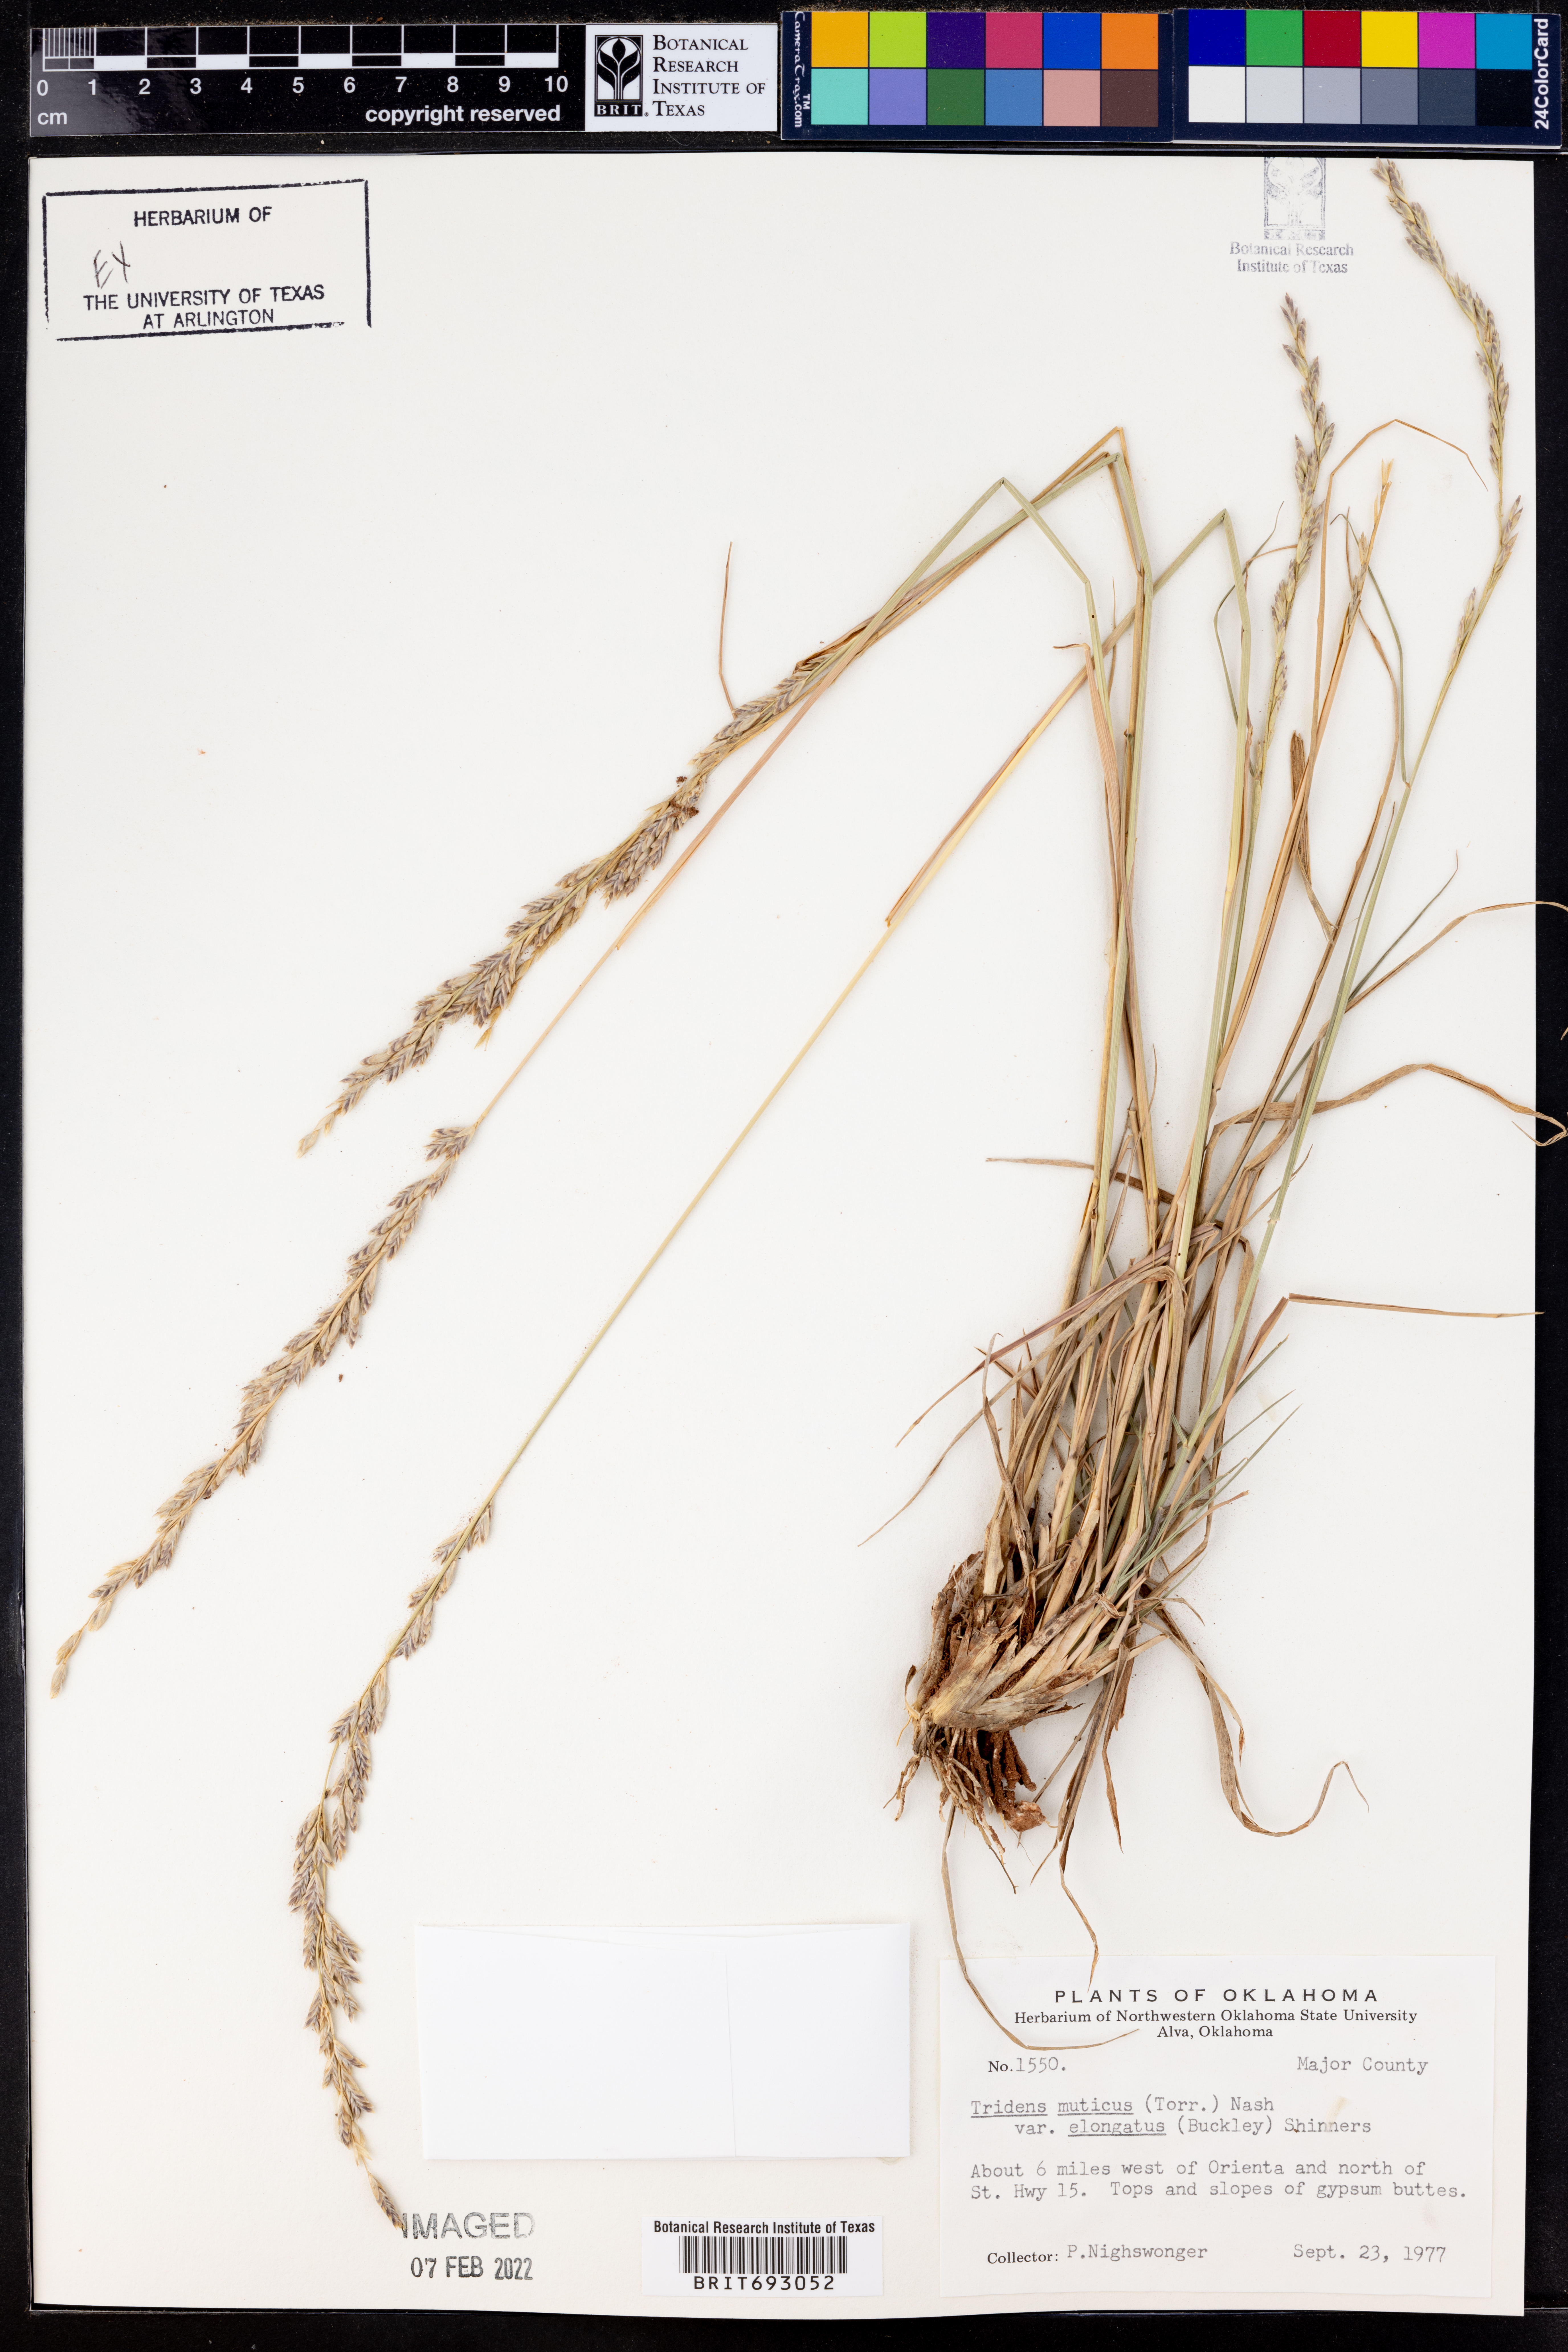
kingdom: Plantae
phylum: Tracheophyta
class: Liliopsida
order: Poales
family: Poaceae
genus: Tridentopsis
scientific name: Tridentopsis mutica
